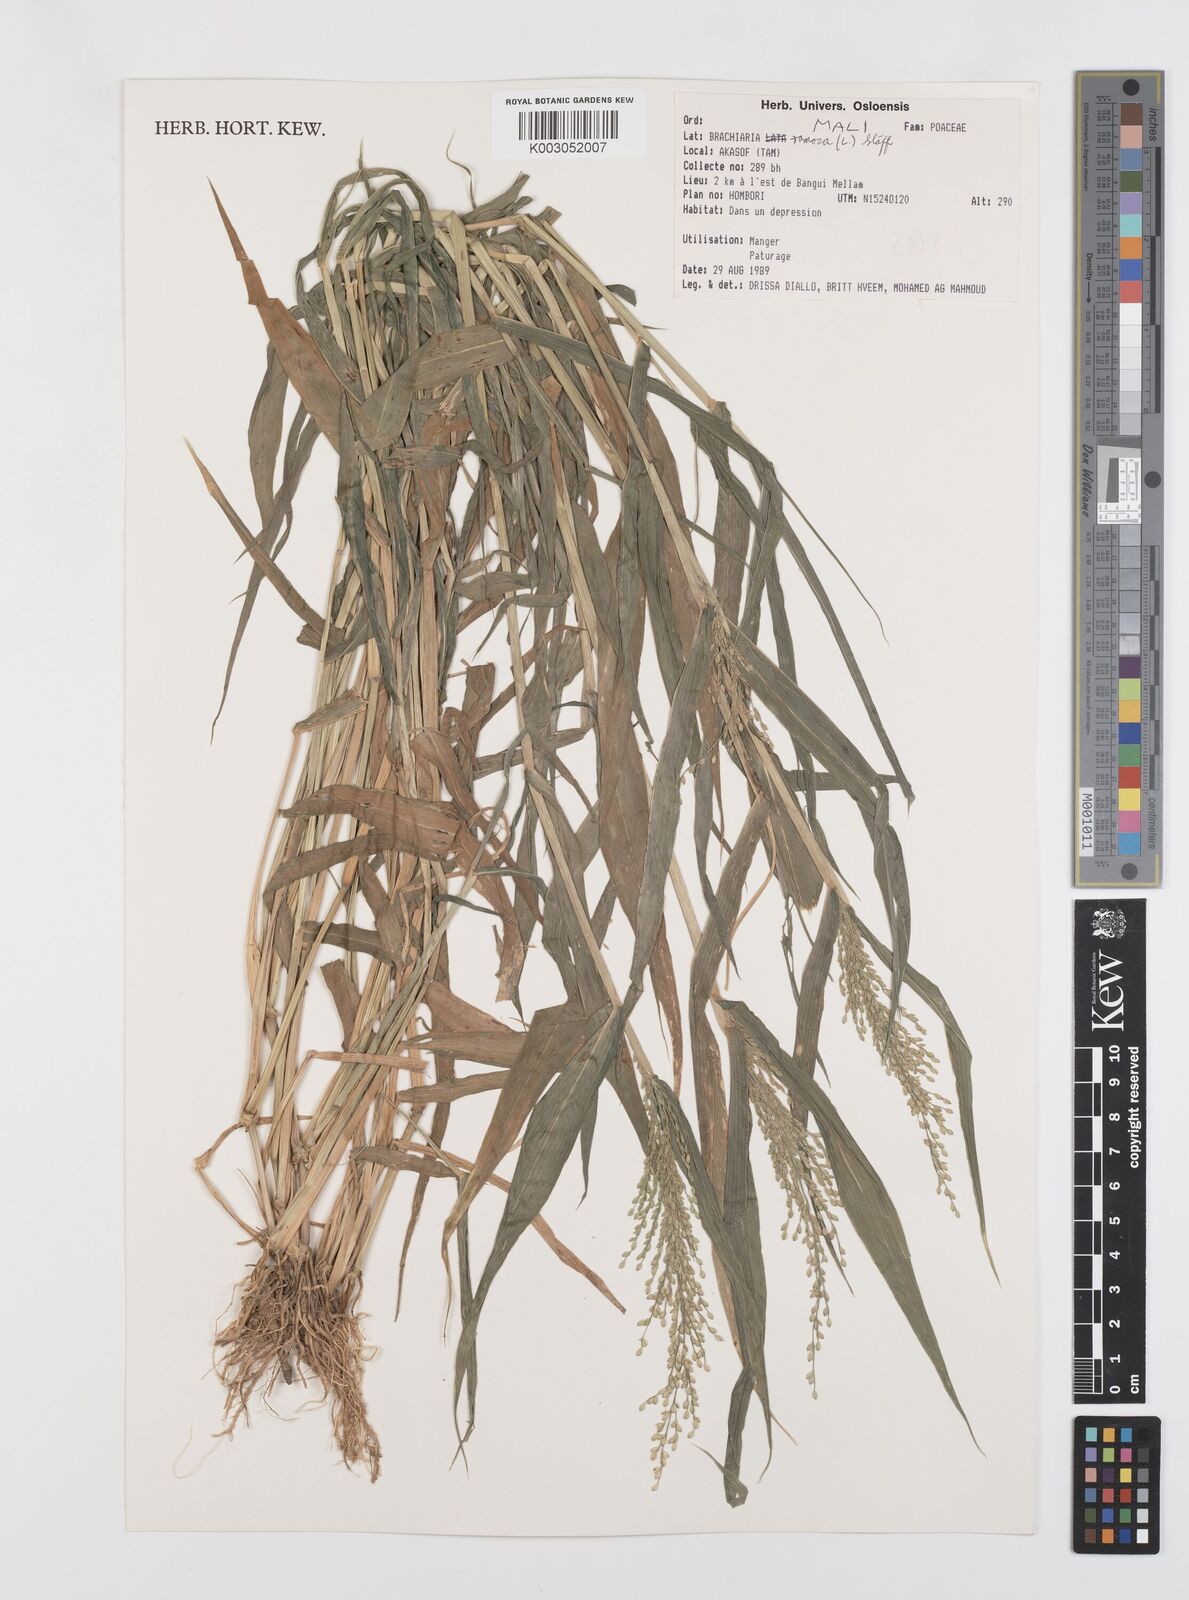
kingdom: Plantae
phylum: Tracheophyta
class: Liliopsida
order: Poales
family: Poaceae
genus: Urochloa
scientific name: Urochloa ramosa
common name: Browntop millet
